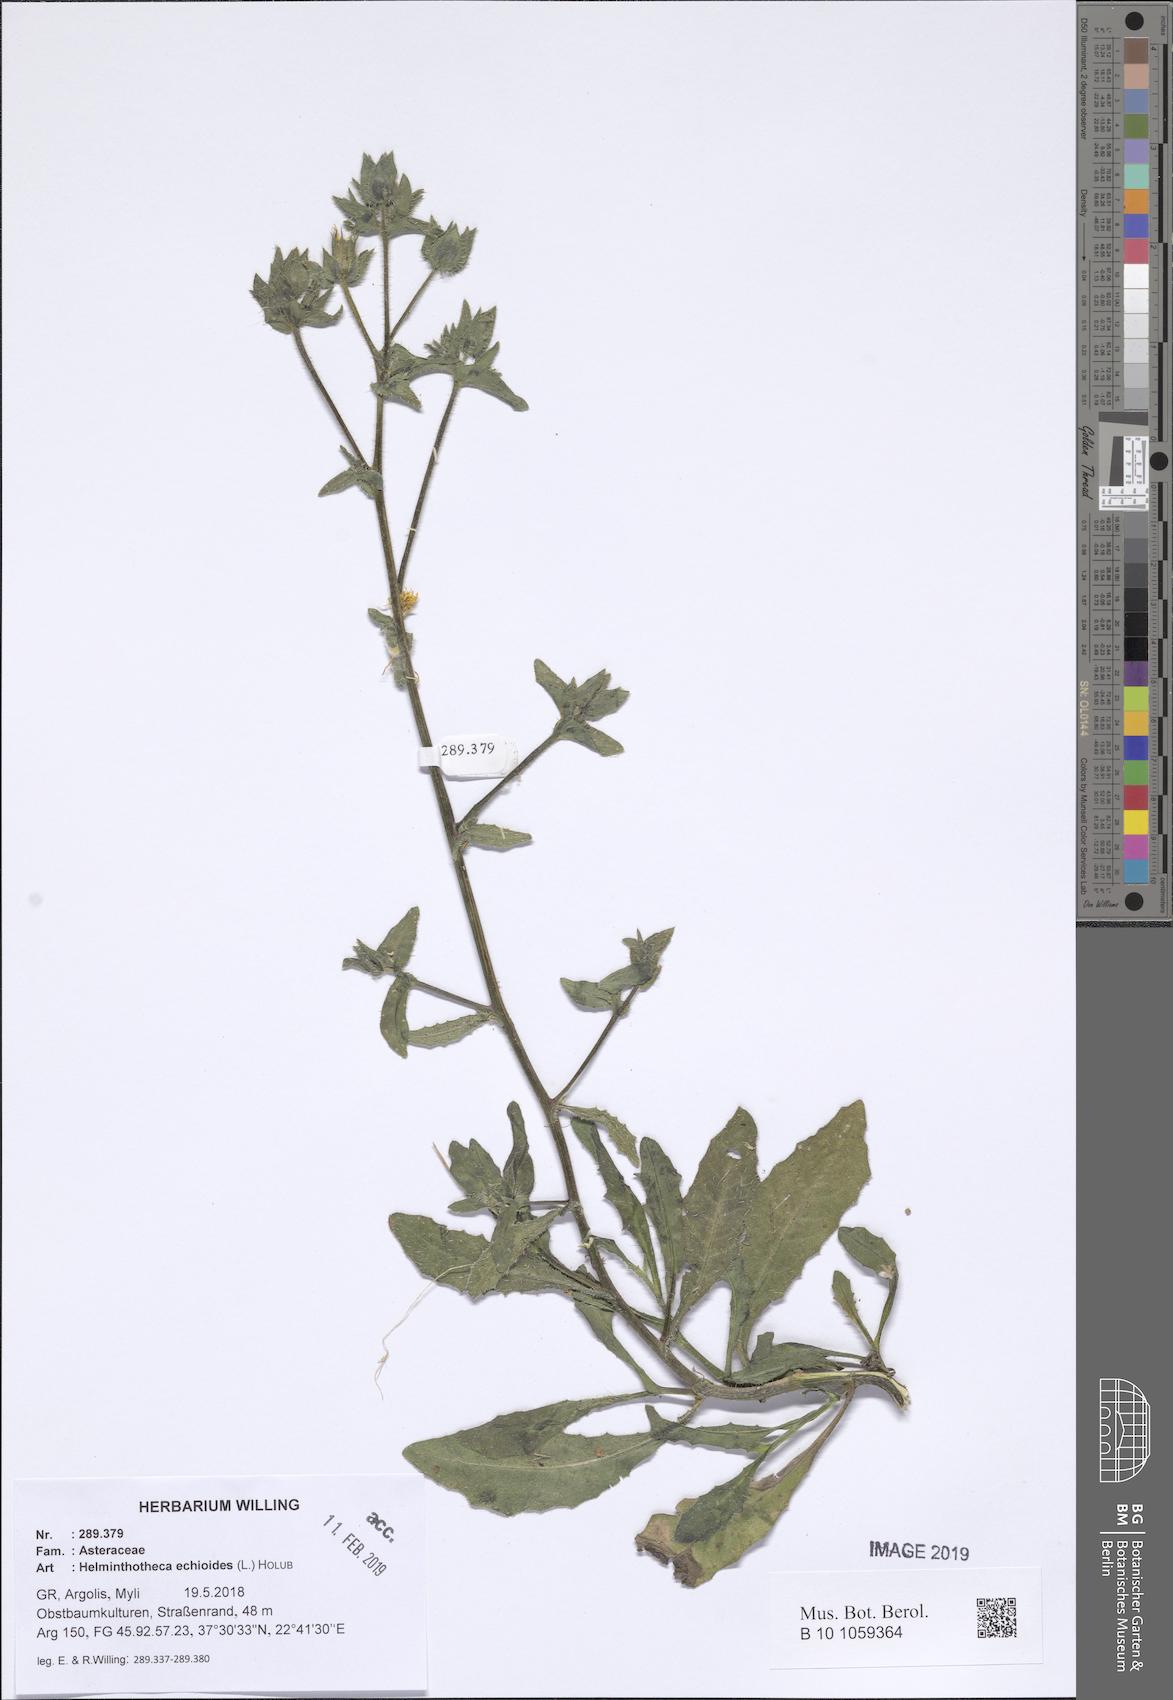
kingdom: Plantae
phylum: Tracheophyta
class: Magnoliopsida
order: Asterales
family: Asteraceae
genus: Helminthotheca
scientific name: Helminthotheca echioides
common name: Ox-tongue
